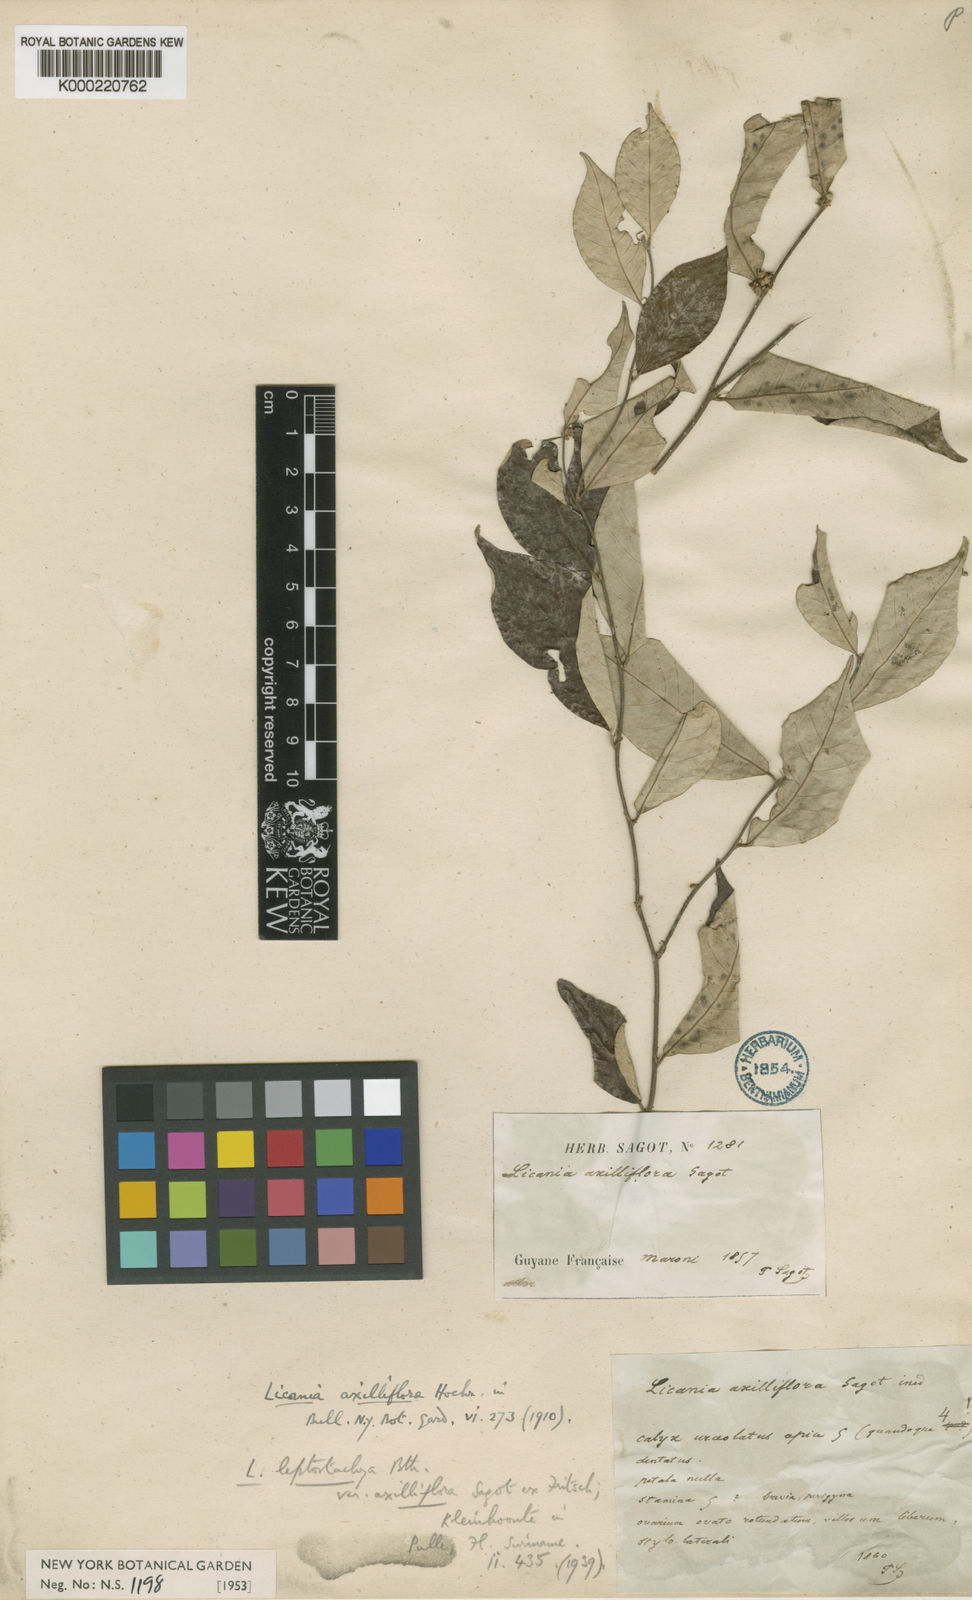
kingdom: Plantae
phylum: Tracheophyta
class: Magnoliopsida
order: Malpighiales
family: Chrysobalanaceae
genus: Licania
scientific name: Licania leptostachya
